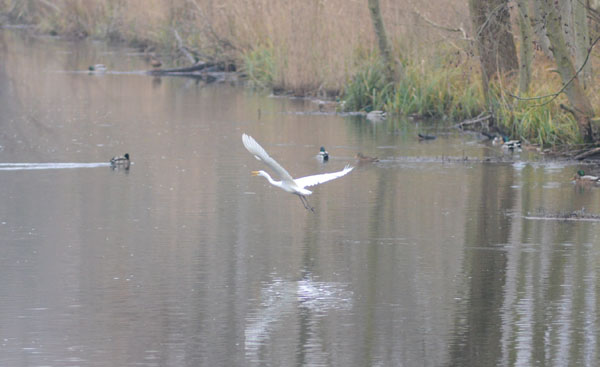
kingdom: Animalia
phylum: Chordata
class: Aves
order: Pelecaniformes
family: Ardeidae
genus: Ardea
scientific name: Ardea alba
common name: Great egret
